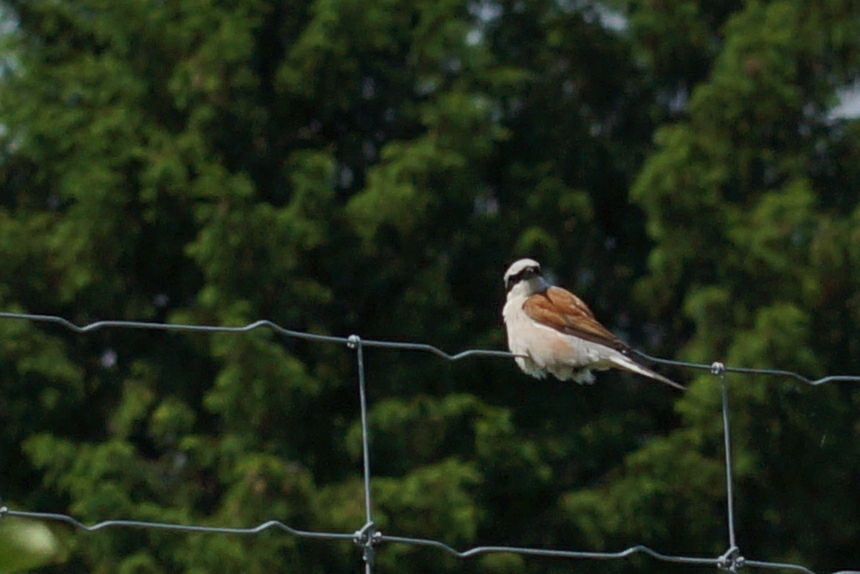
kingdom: Animalia
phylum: Chordata
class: Aves
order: Passeriformes
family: Laniidae
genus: Lanius
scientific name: Lanius collurio
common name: Rødrygget tornskade
